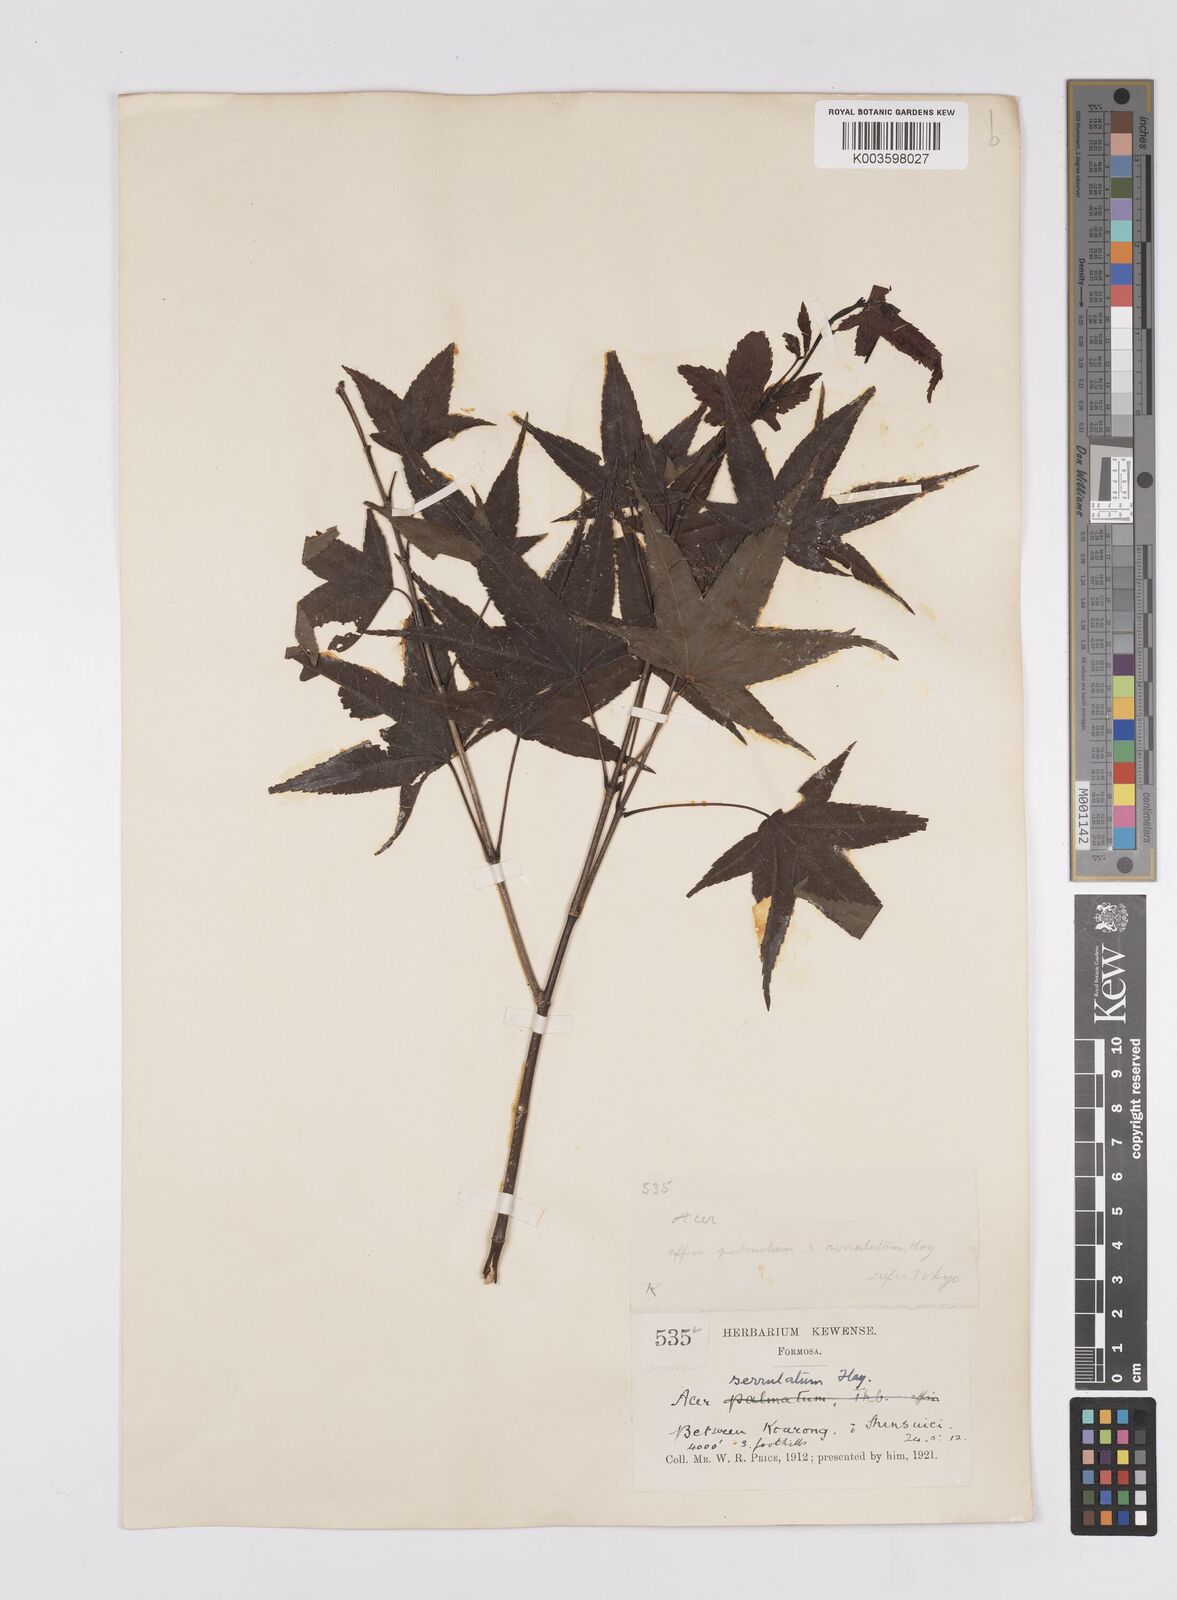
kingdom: Plantae
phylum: Tracheophyta
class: Magnoliopsida
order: Sapindales
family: Sapindaceae
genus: Acer
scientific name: Acer serrulatum
